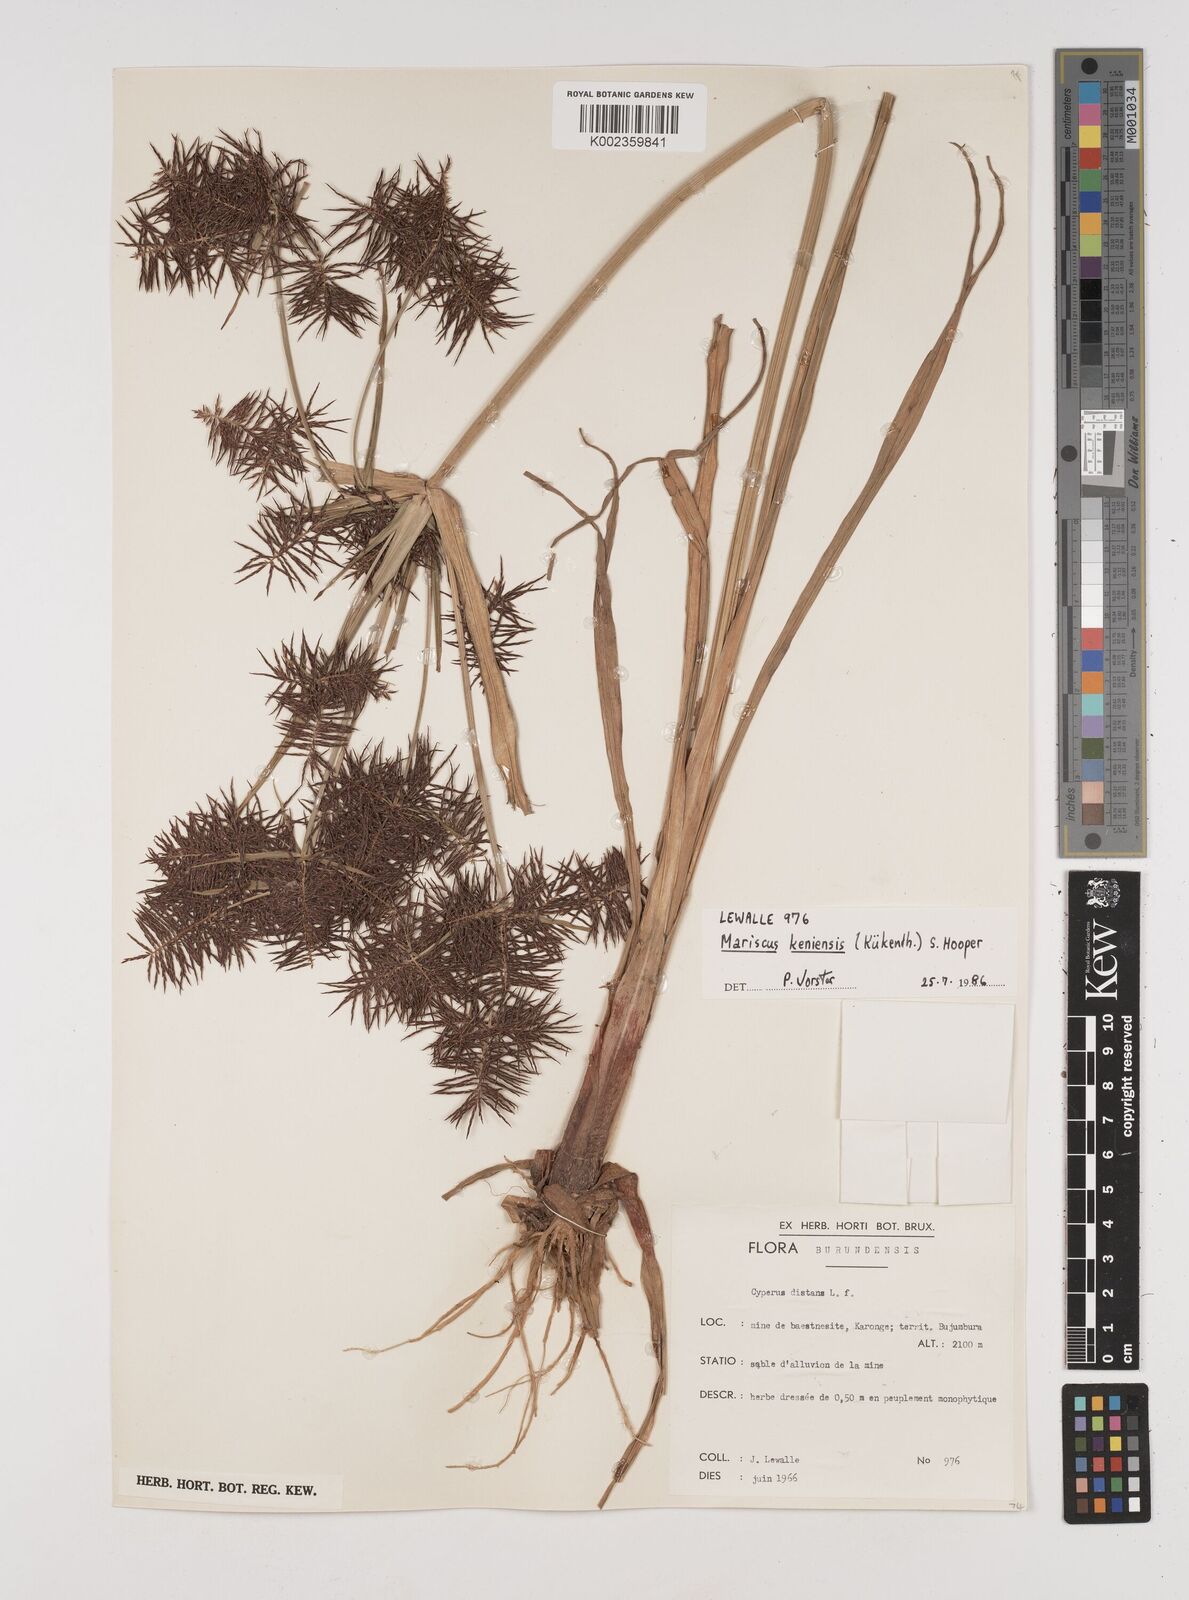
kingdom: Plantae
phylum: Tracheophyta
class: Liliopsida
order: Poales
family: Cyperaceae
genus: Cyperus
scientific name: Cyperus distans
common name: Slender cyperus
